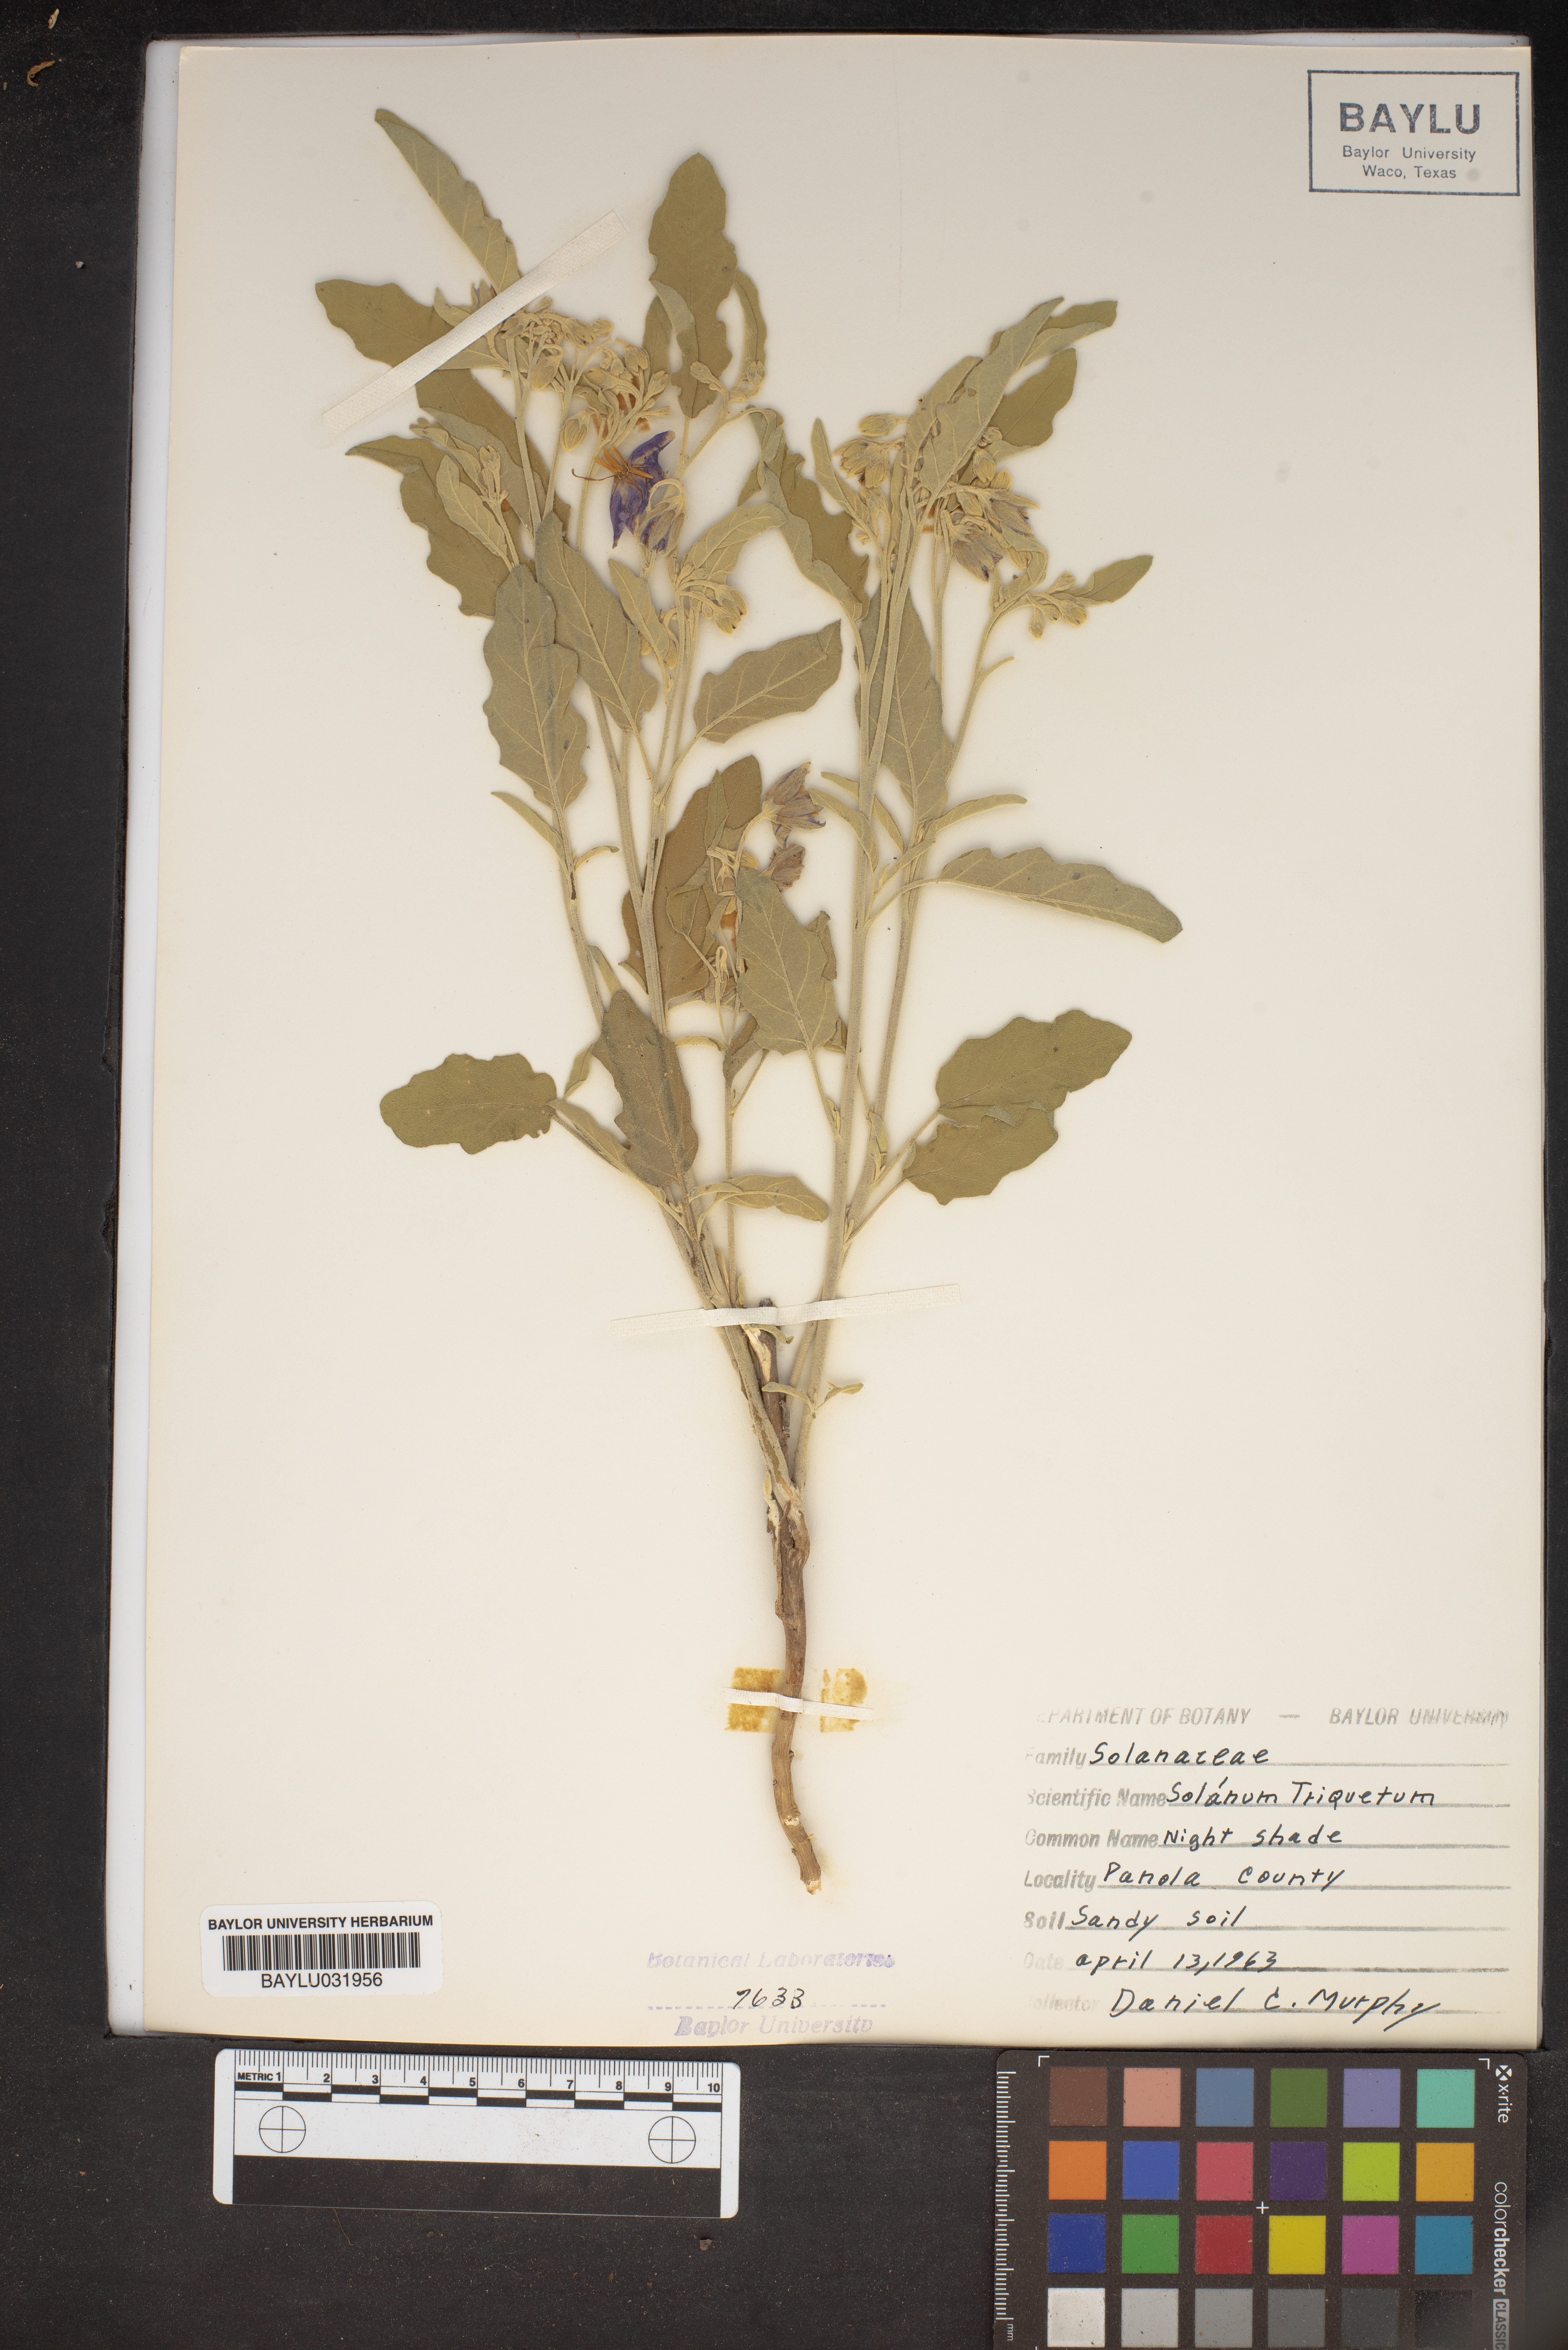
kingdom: Plantae
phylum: Tracheophyta
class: Magnoliopsida
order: Solanales
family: Solanaceae
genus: Solanum
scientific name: Solanum triquetrum
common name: Texas nightshade
